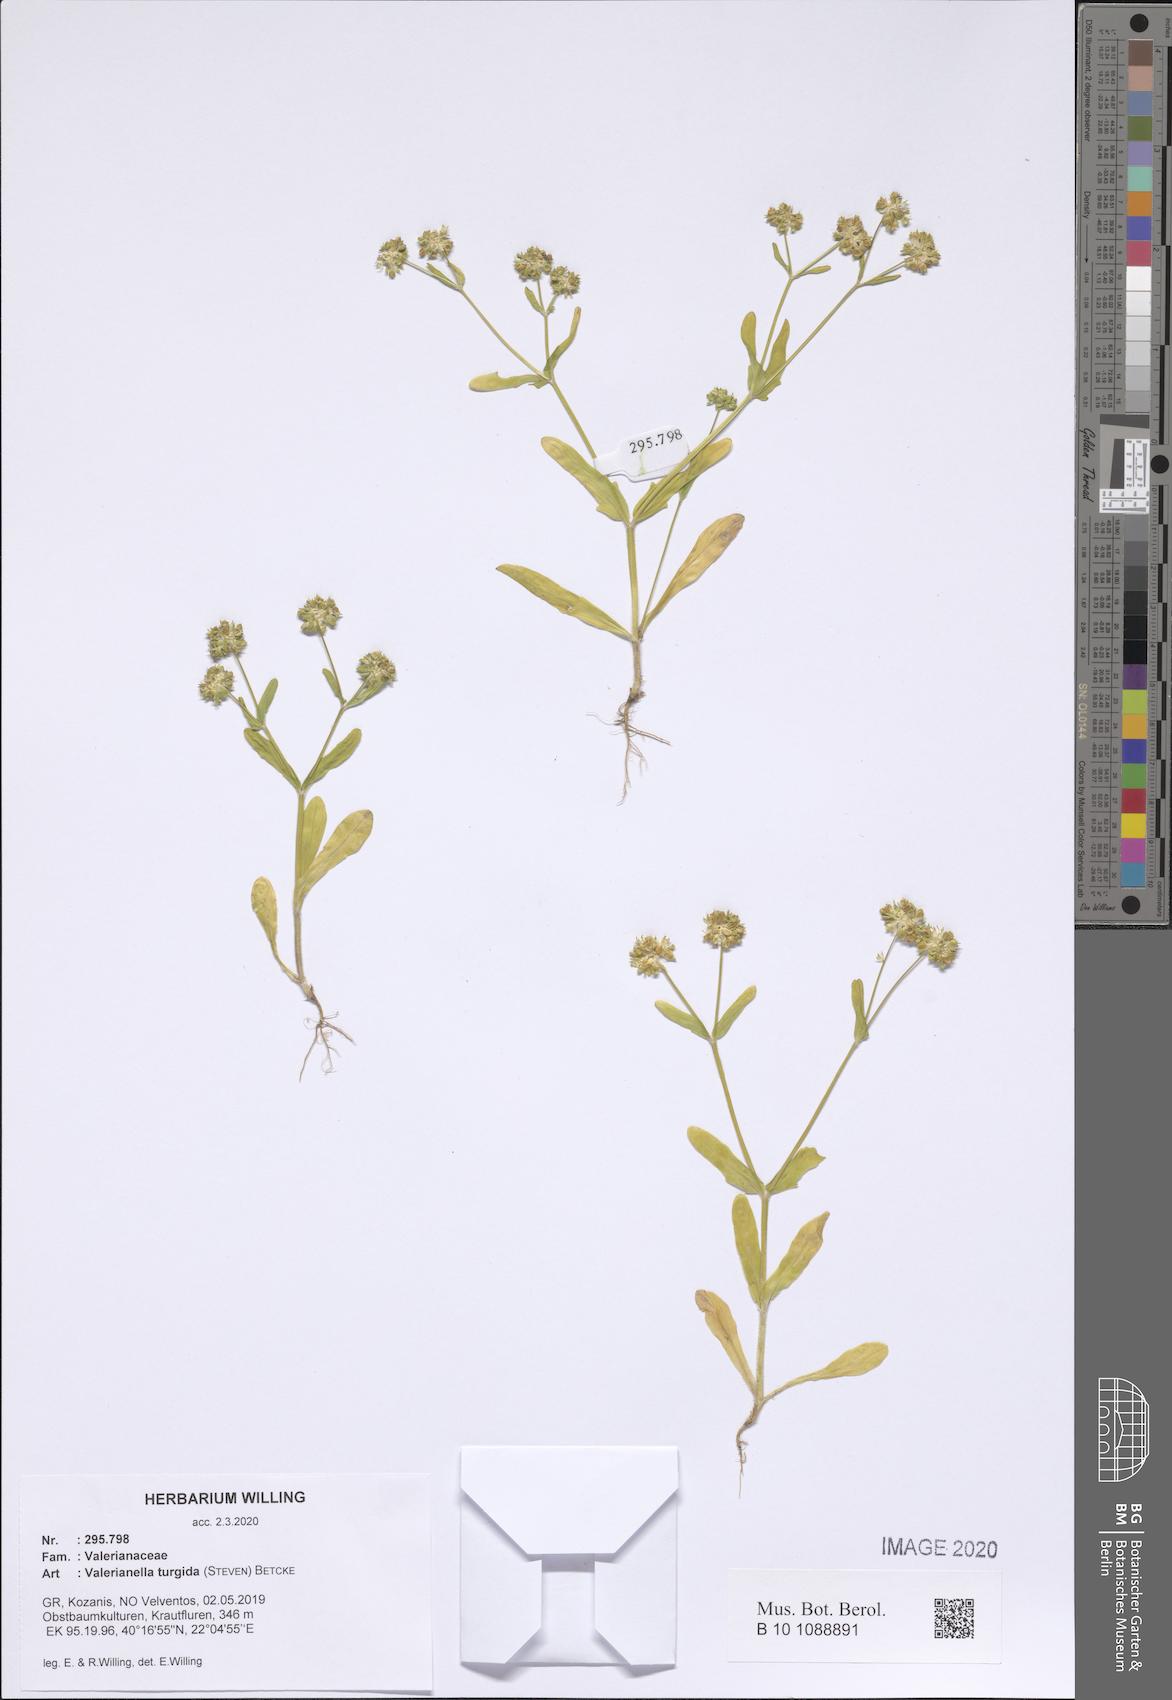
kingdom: Plantae
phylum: Tracheophyta
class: Magnoliopsida
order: Dipsacales
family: Caprifoliaceae
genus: Valerianella
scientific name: Valerianella turgida
